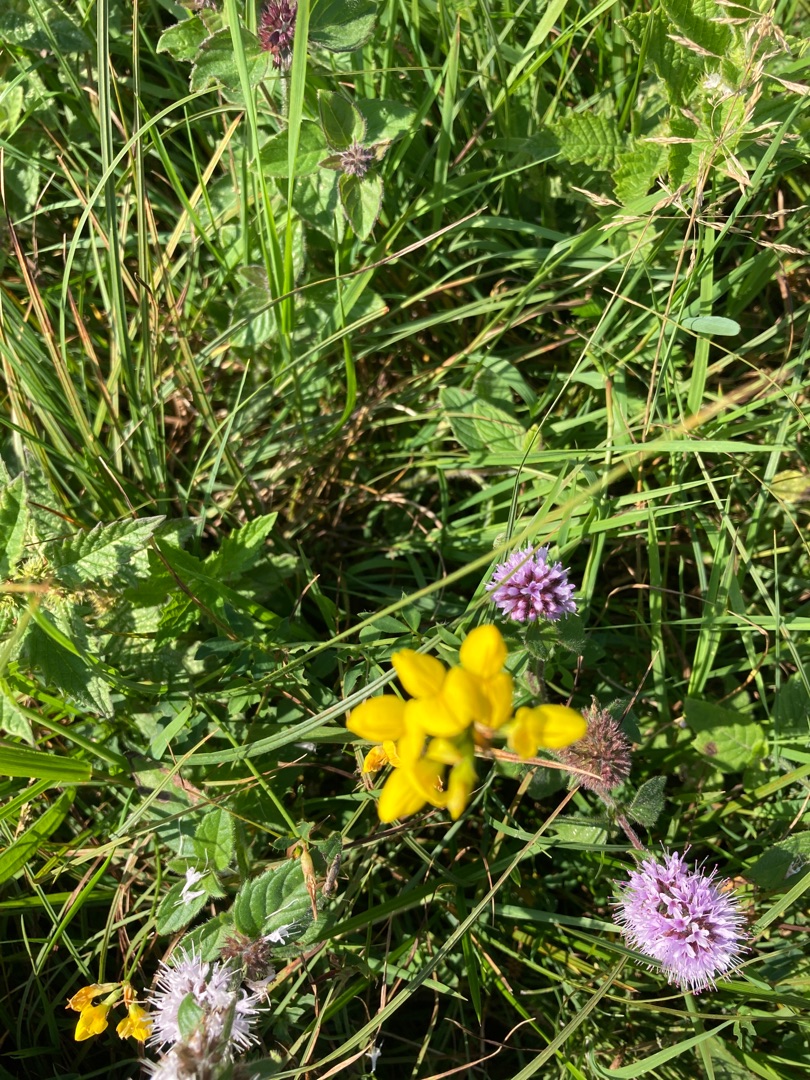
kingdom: Plantae
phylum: Tracheophyta
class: Magnoliopsida
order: Fabales
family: Fabaceae
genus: Lotus
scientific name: Lotus
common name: Kællingetandslægten
